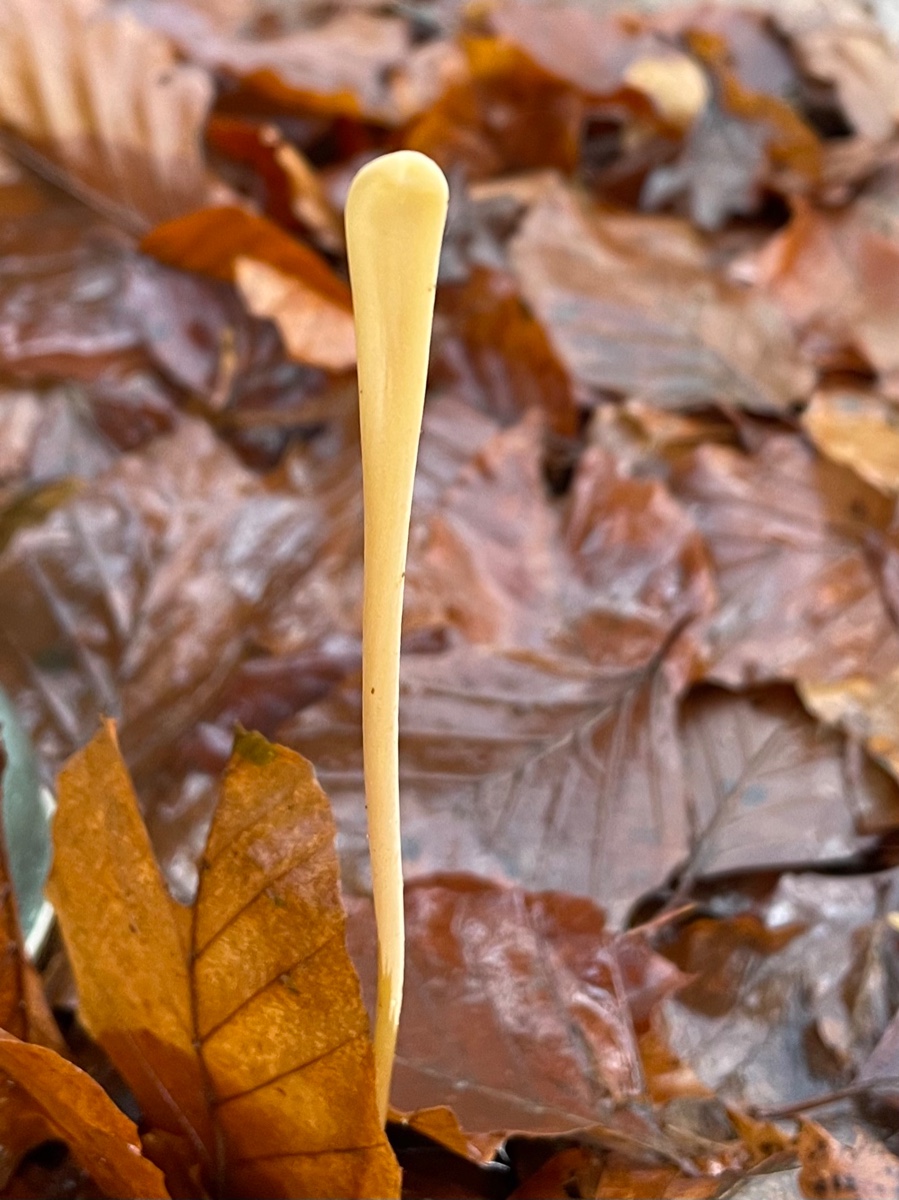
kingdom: Fungi
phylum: Basidiomycota
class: Agaricomycetes
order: Agaricales
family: Typhulaceae
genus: Typhula
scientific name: Typhula fistulosa
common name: pibet rørkølle
